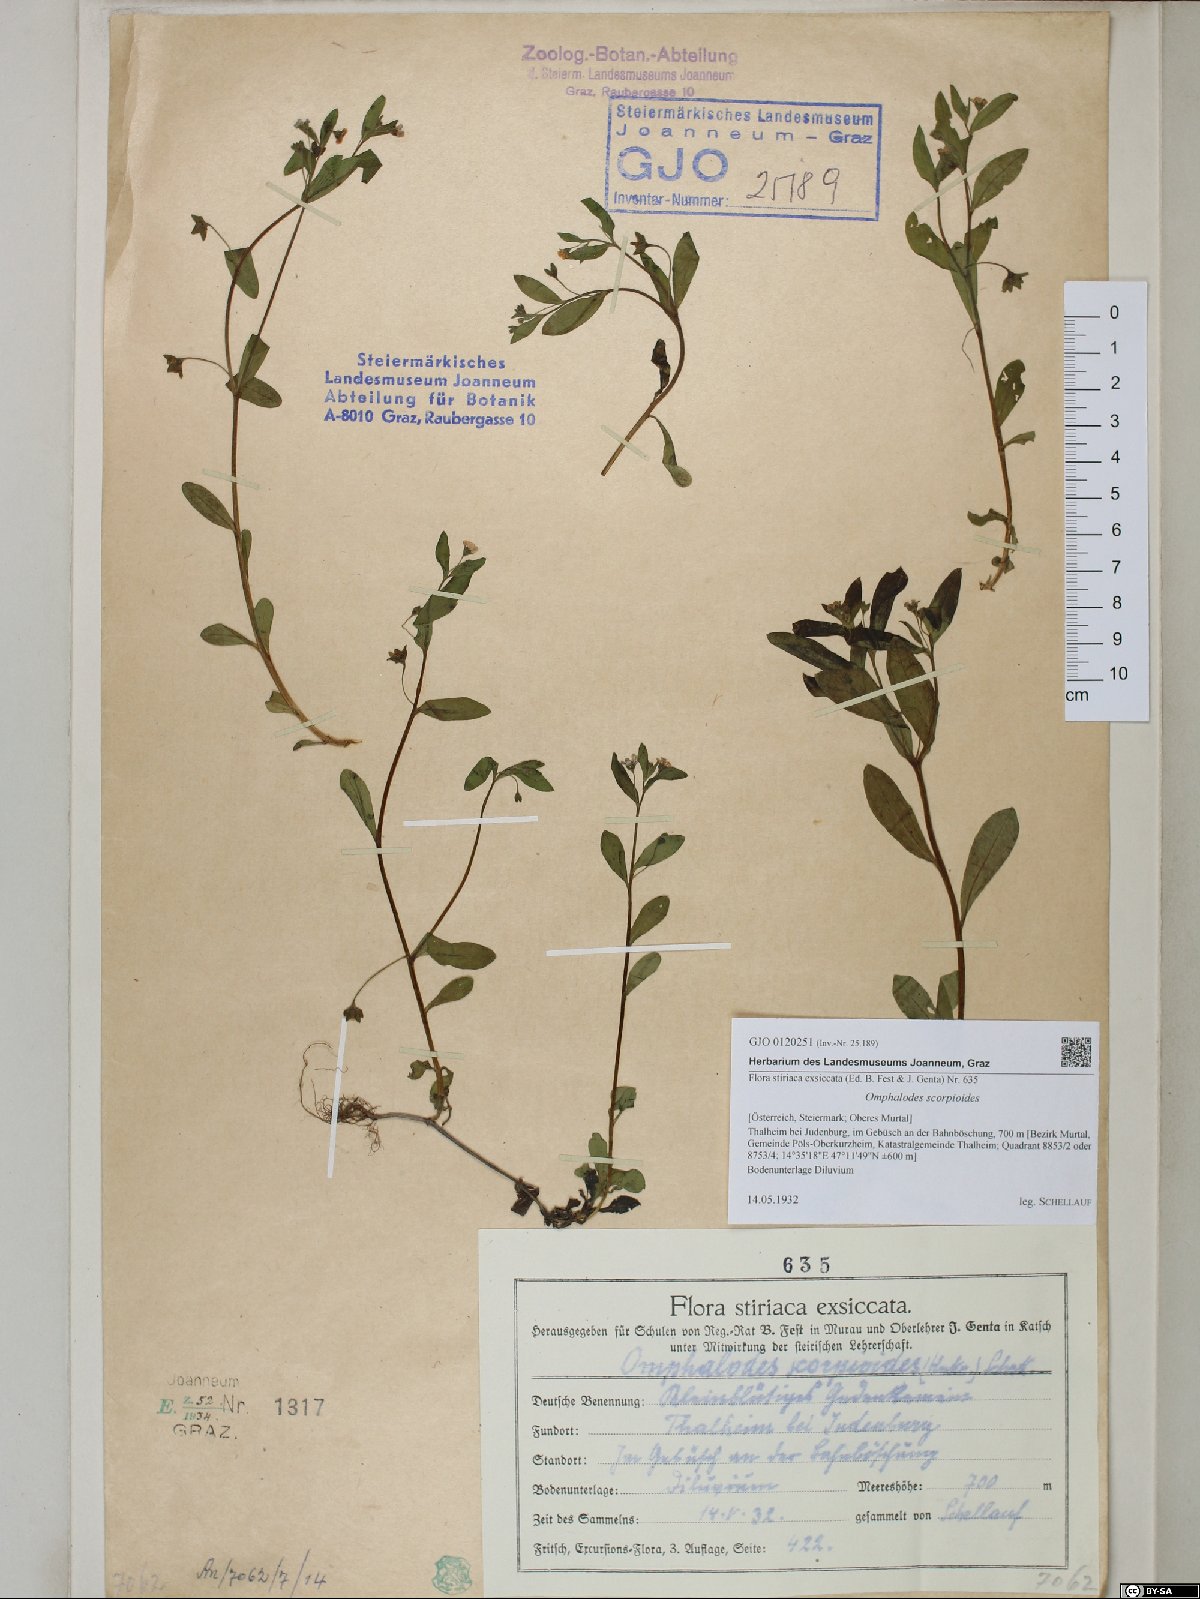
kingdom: Plantae
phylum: Tracheophyta
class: Magnoliopsida
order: Boraginales
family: Boraginaceae
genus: Memoremea
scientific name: Memoremea scorpioides
